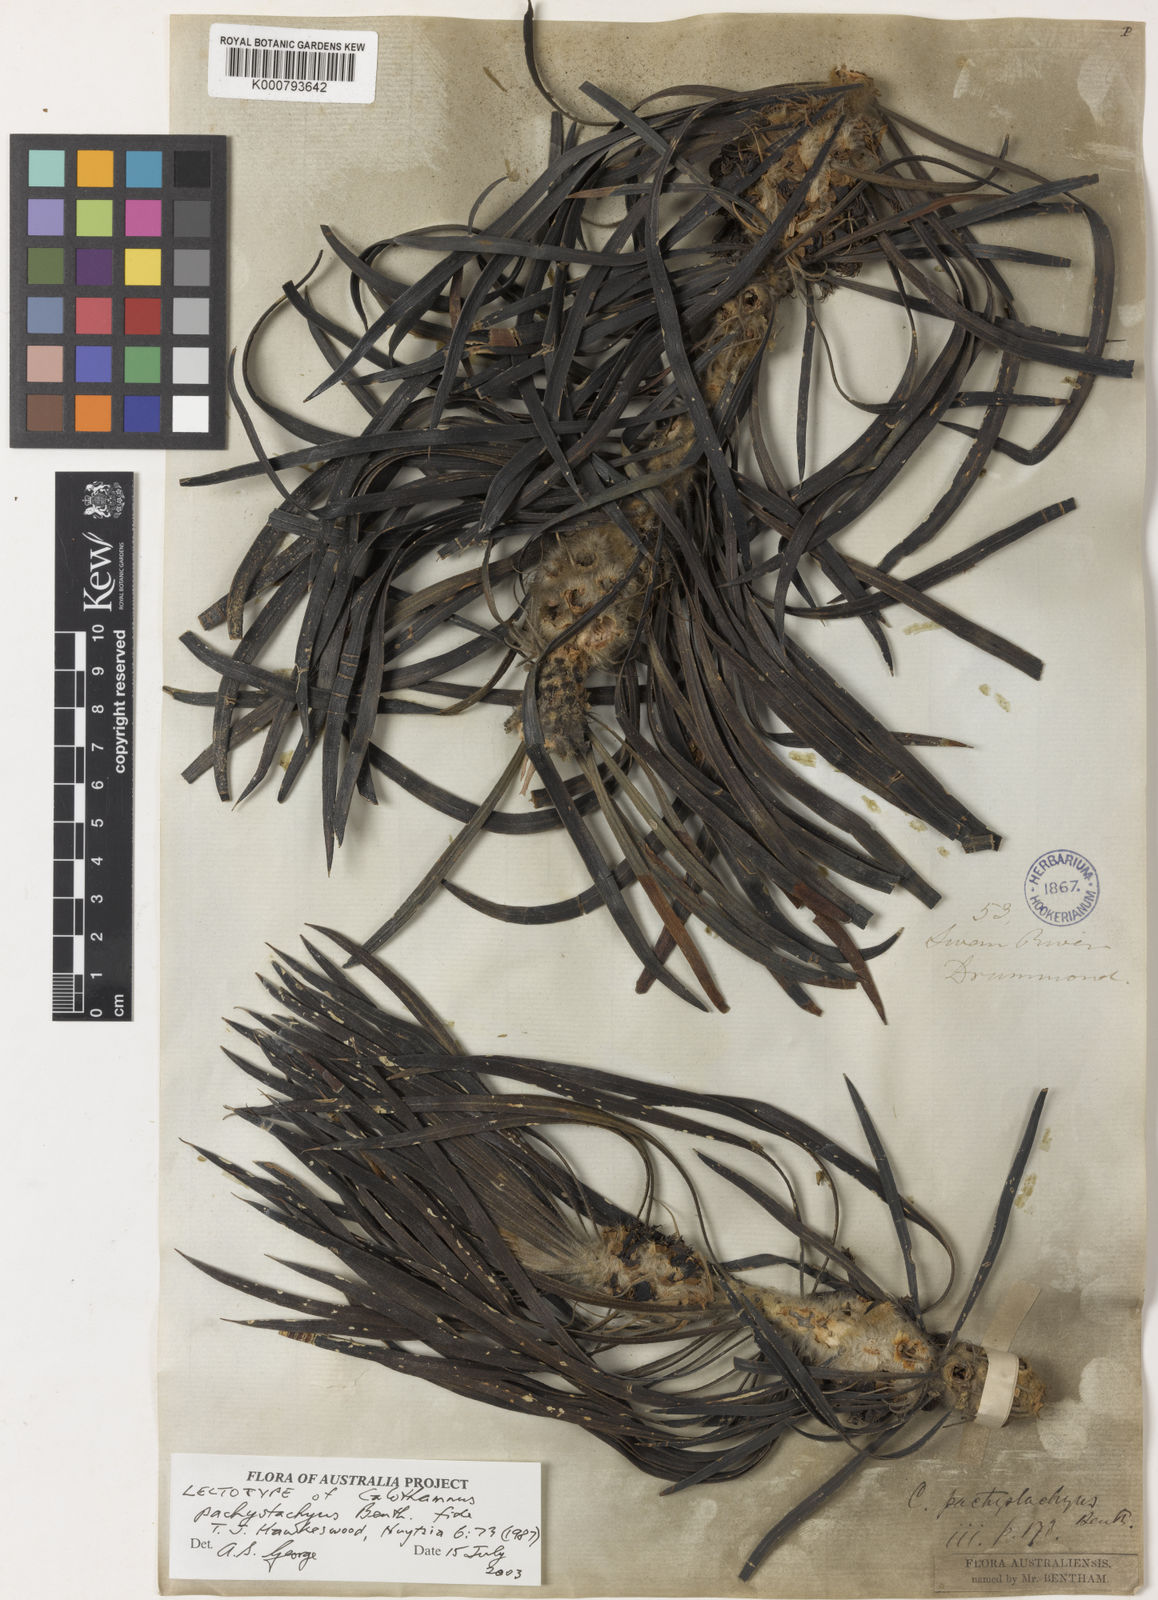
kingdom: Plantae
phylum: Tracheophyta
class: Magnoliopsida
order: Myrtales
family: Myrtaceae
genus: Melaleuca
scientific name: Melaleuca pachystachya
